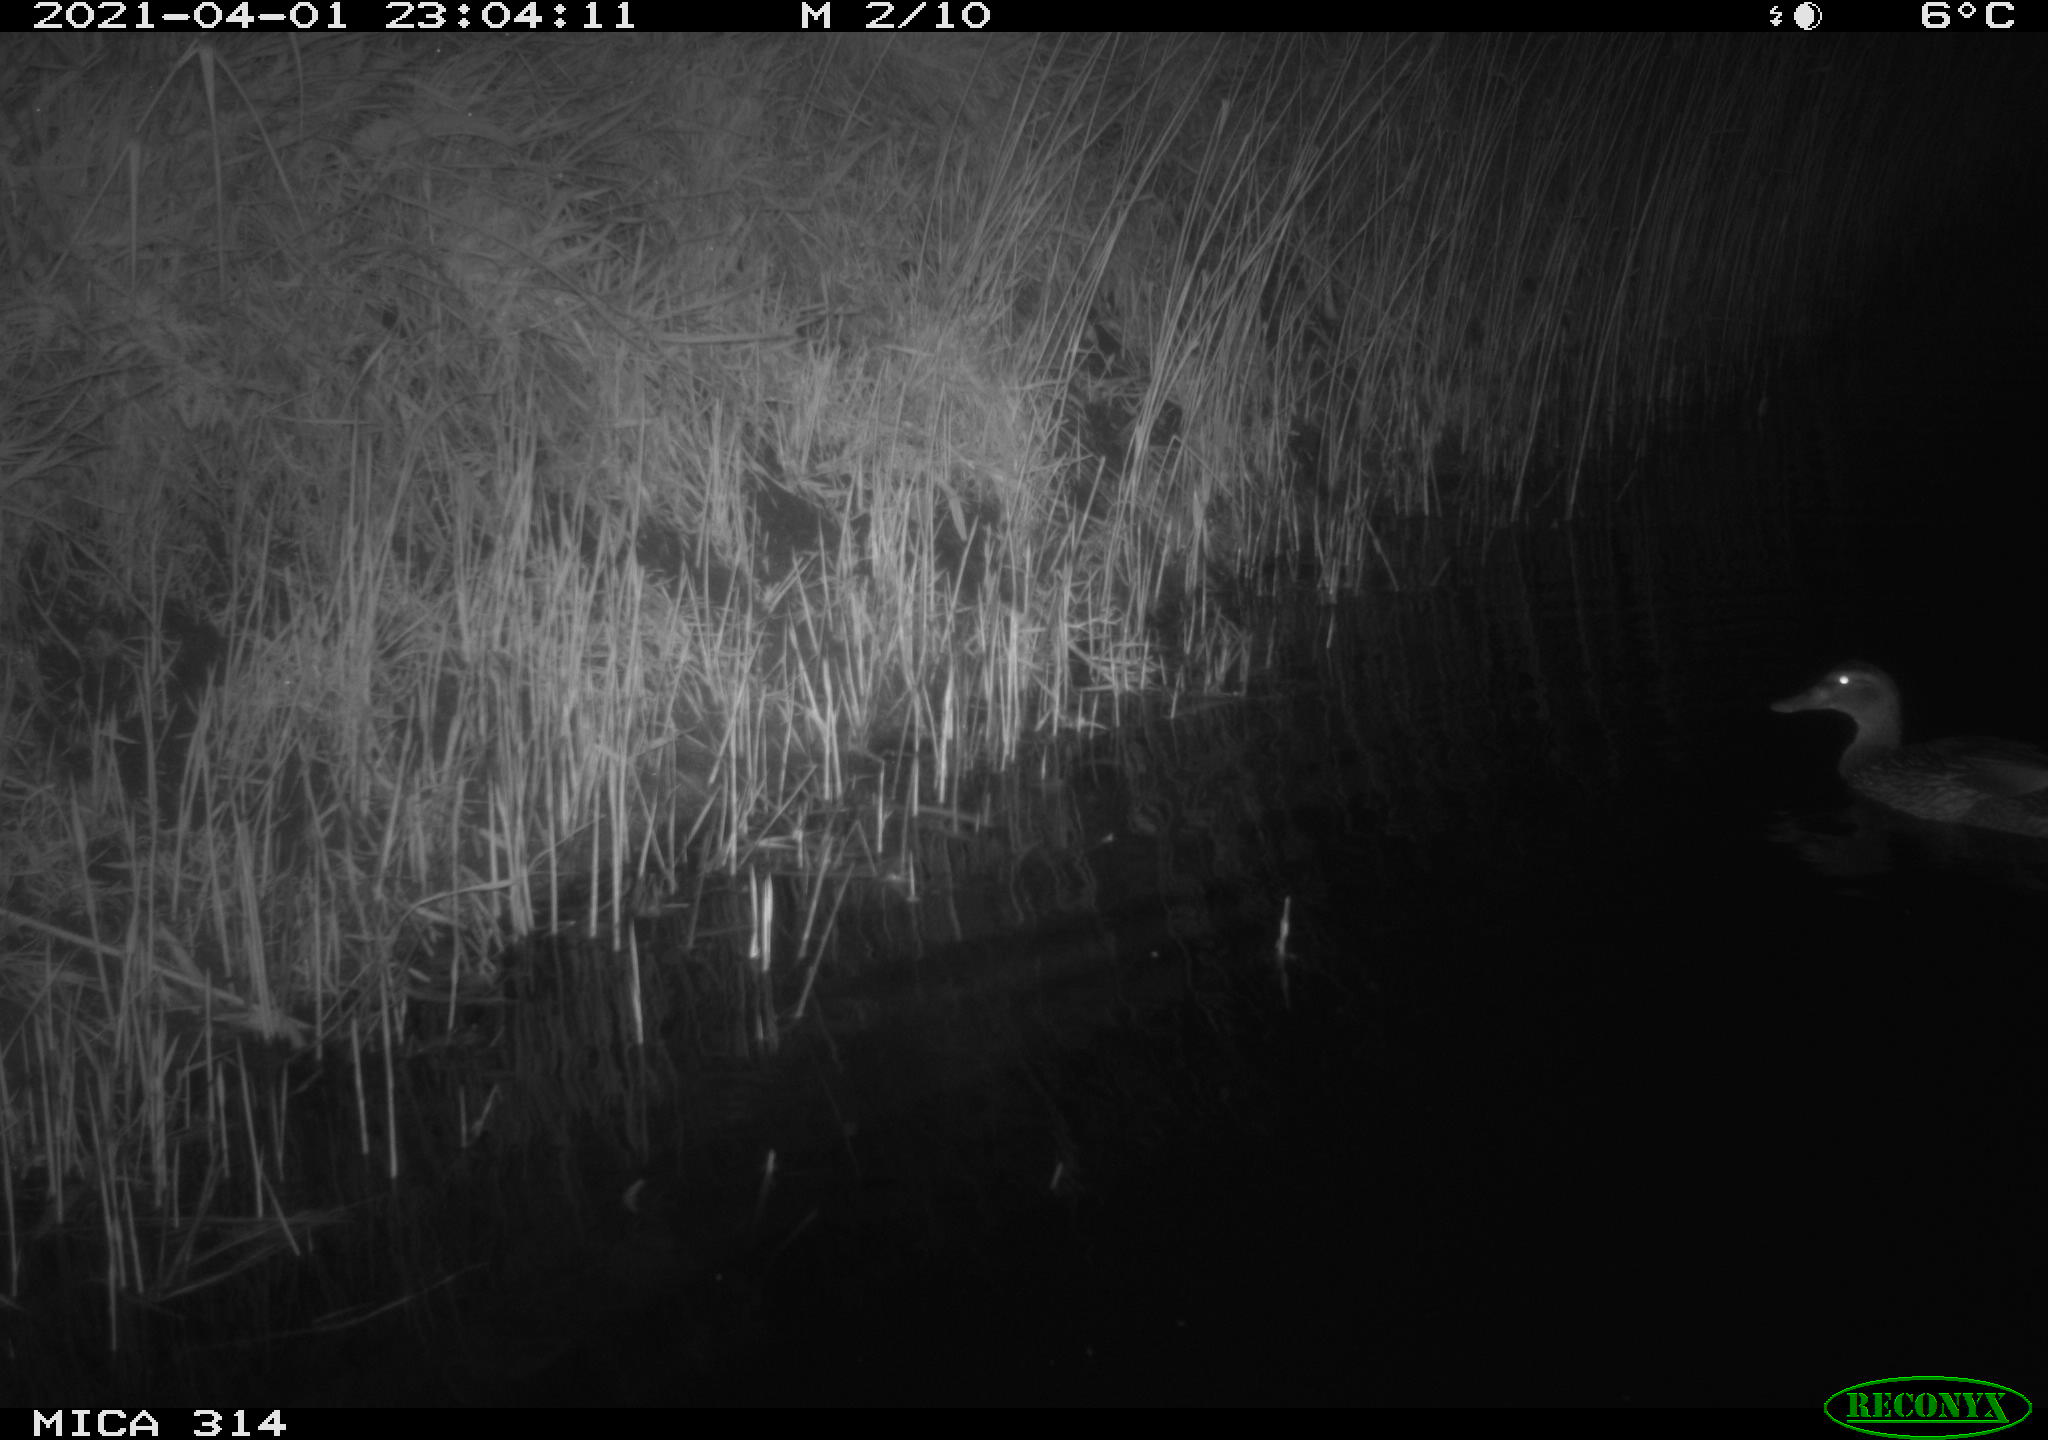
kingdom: Animalia
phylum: Chordata
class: Aves
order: Anseriformes
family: Anatidae
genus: Anas
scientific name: Anas platyrhynchos
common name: Mallard
